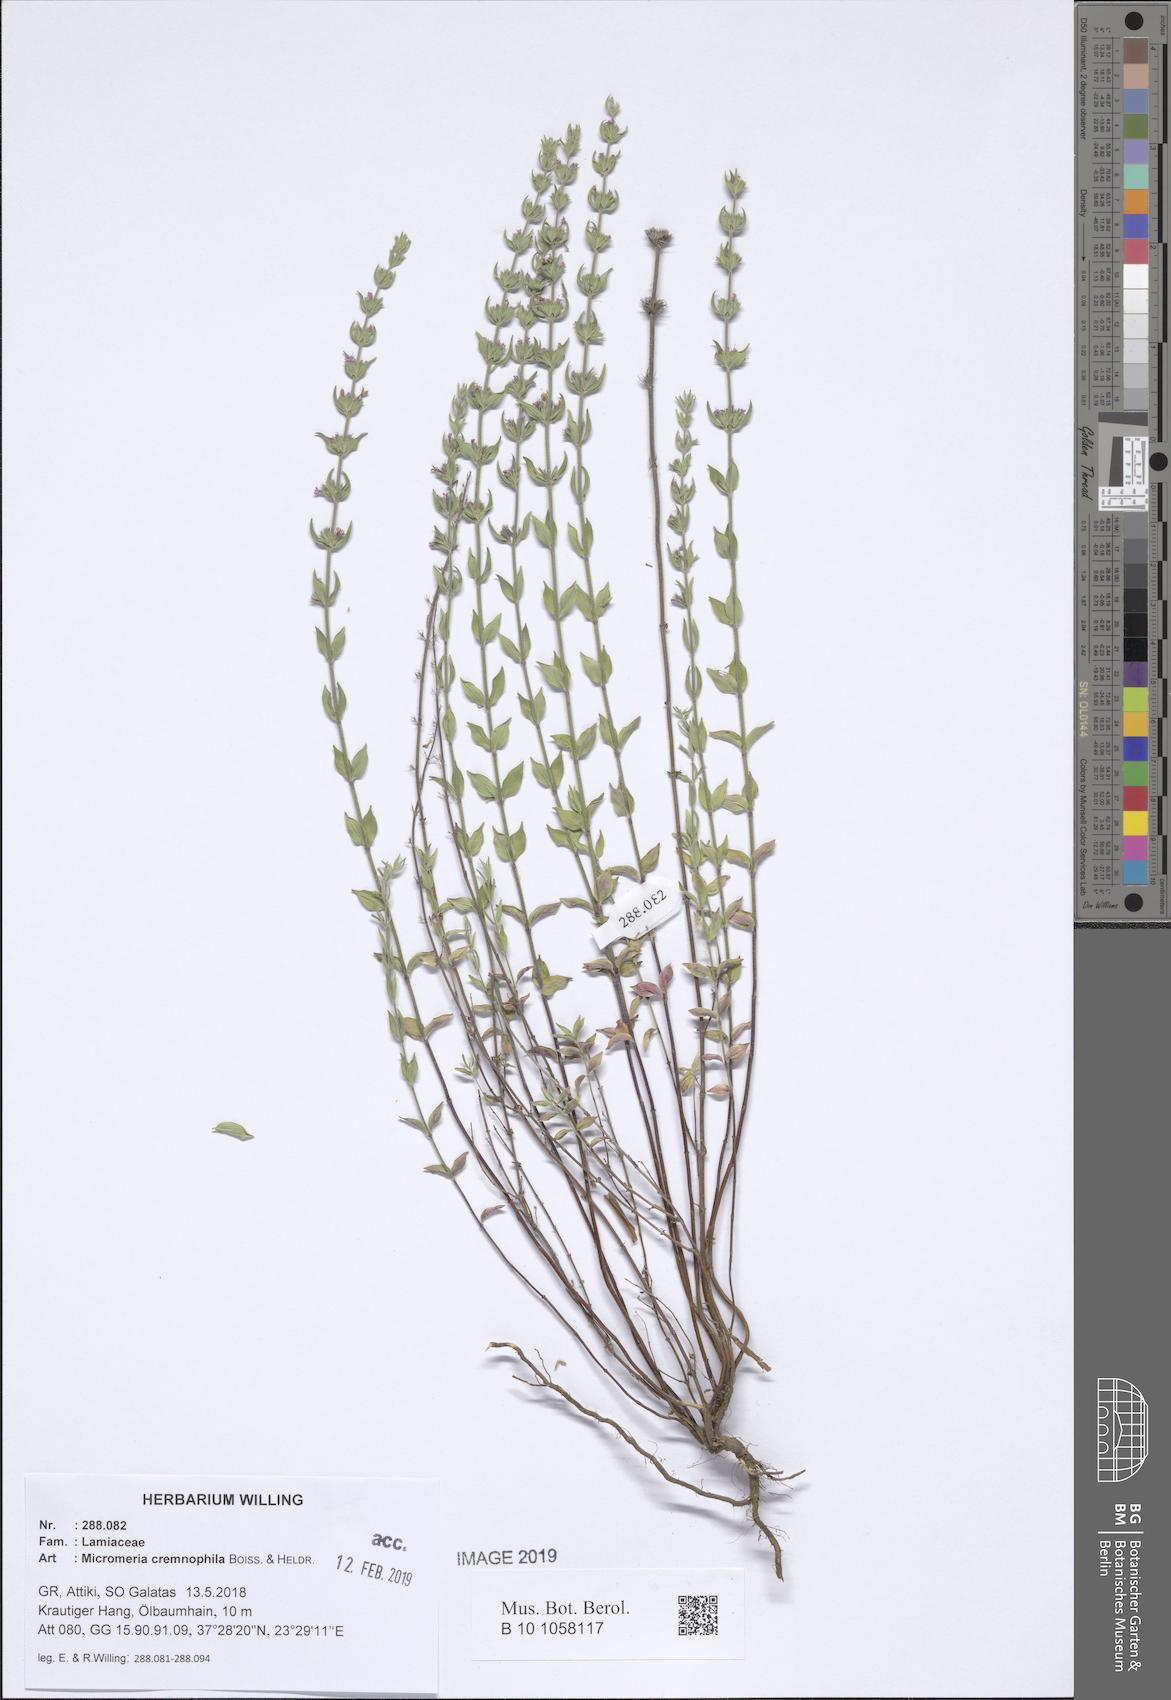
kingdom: Plantae
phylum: Tracheophyta
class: Magnoliopsida
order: Lamiales
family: Lamiaceae
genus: Micromeria
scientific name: Micromeria graeca
